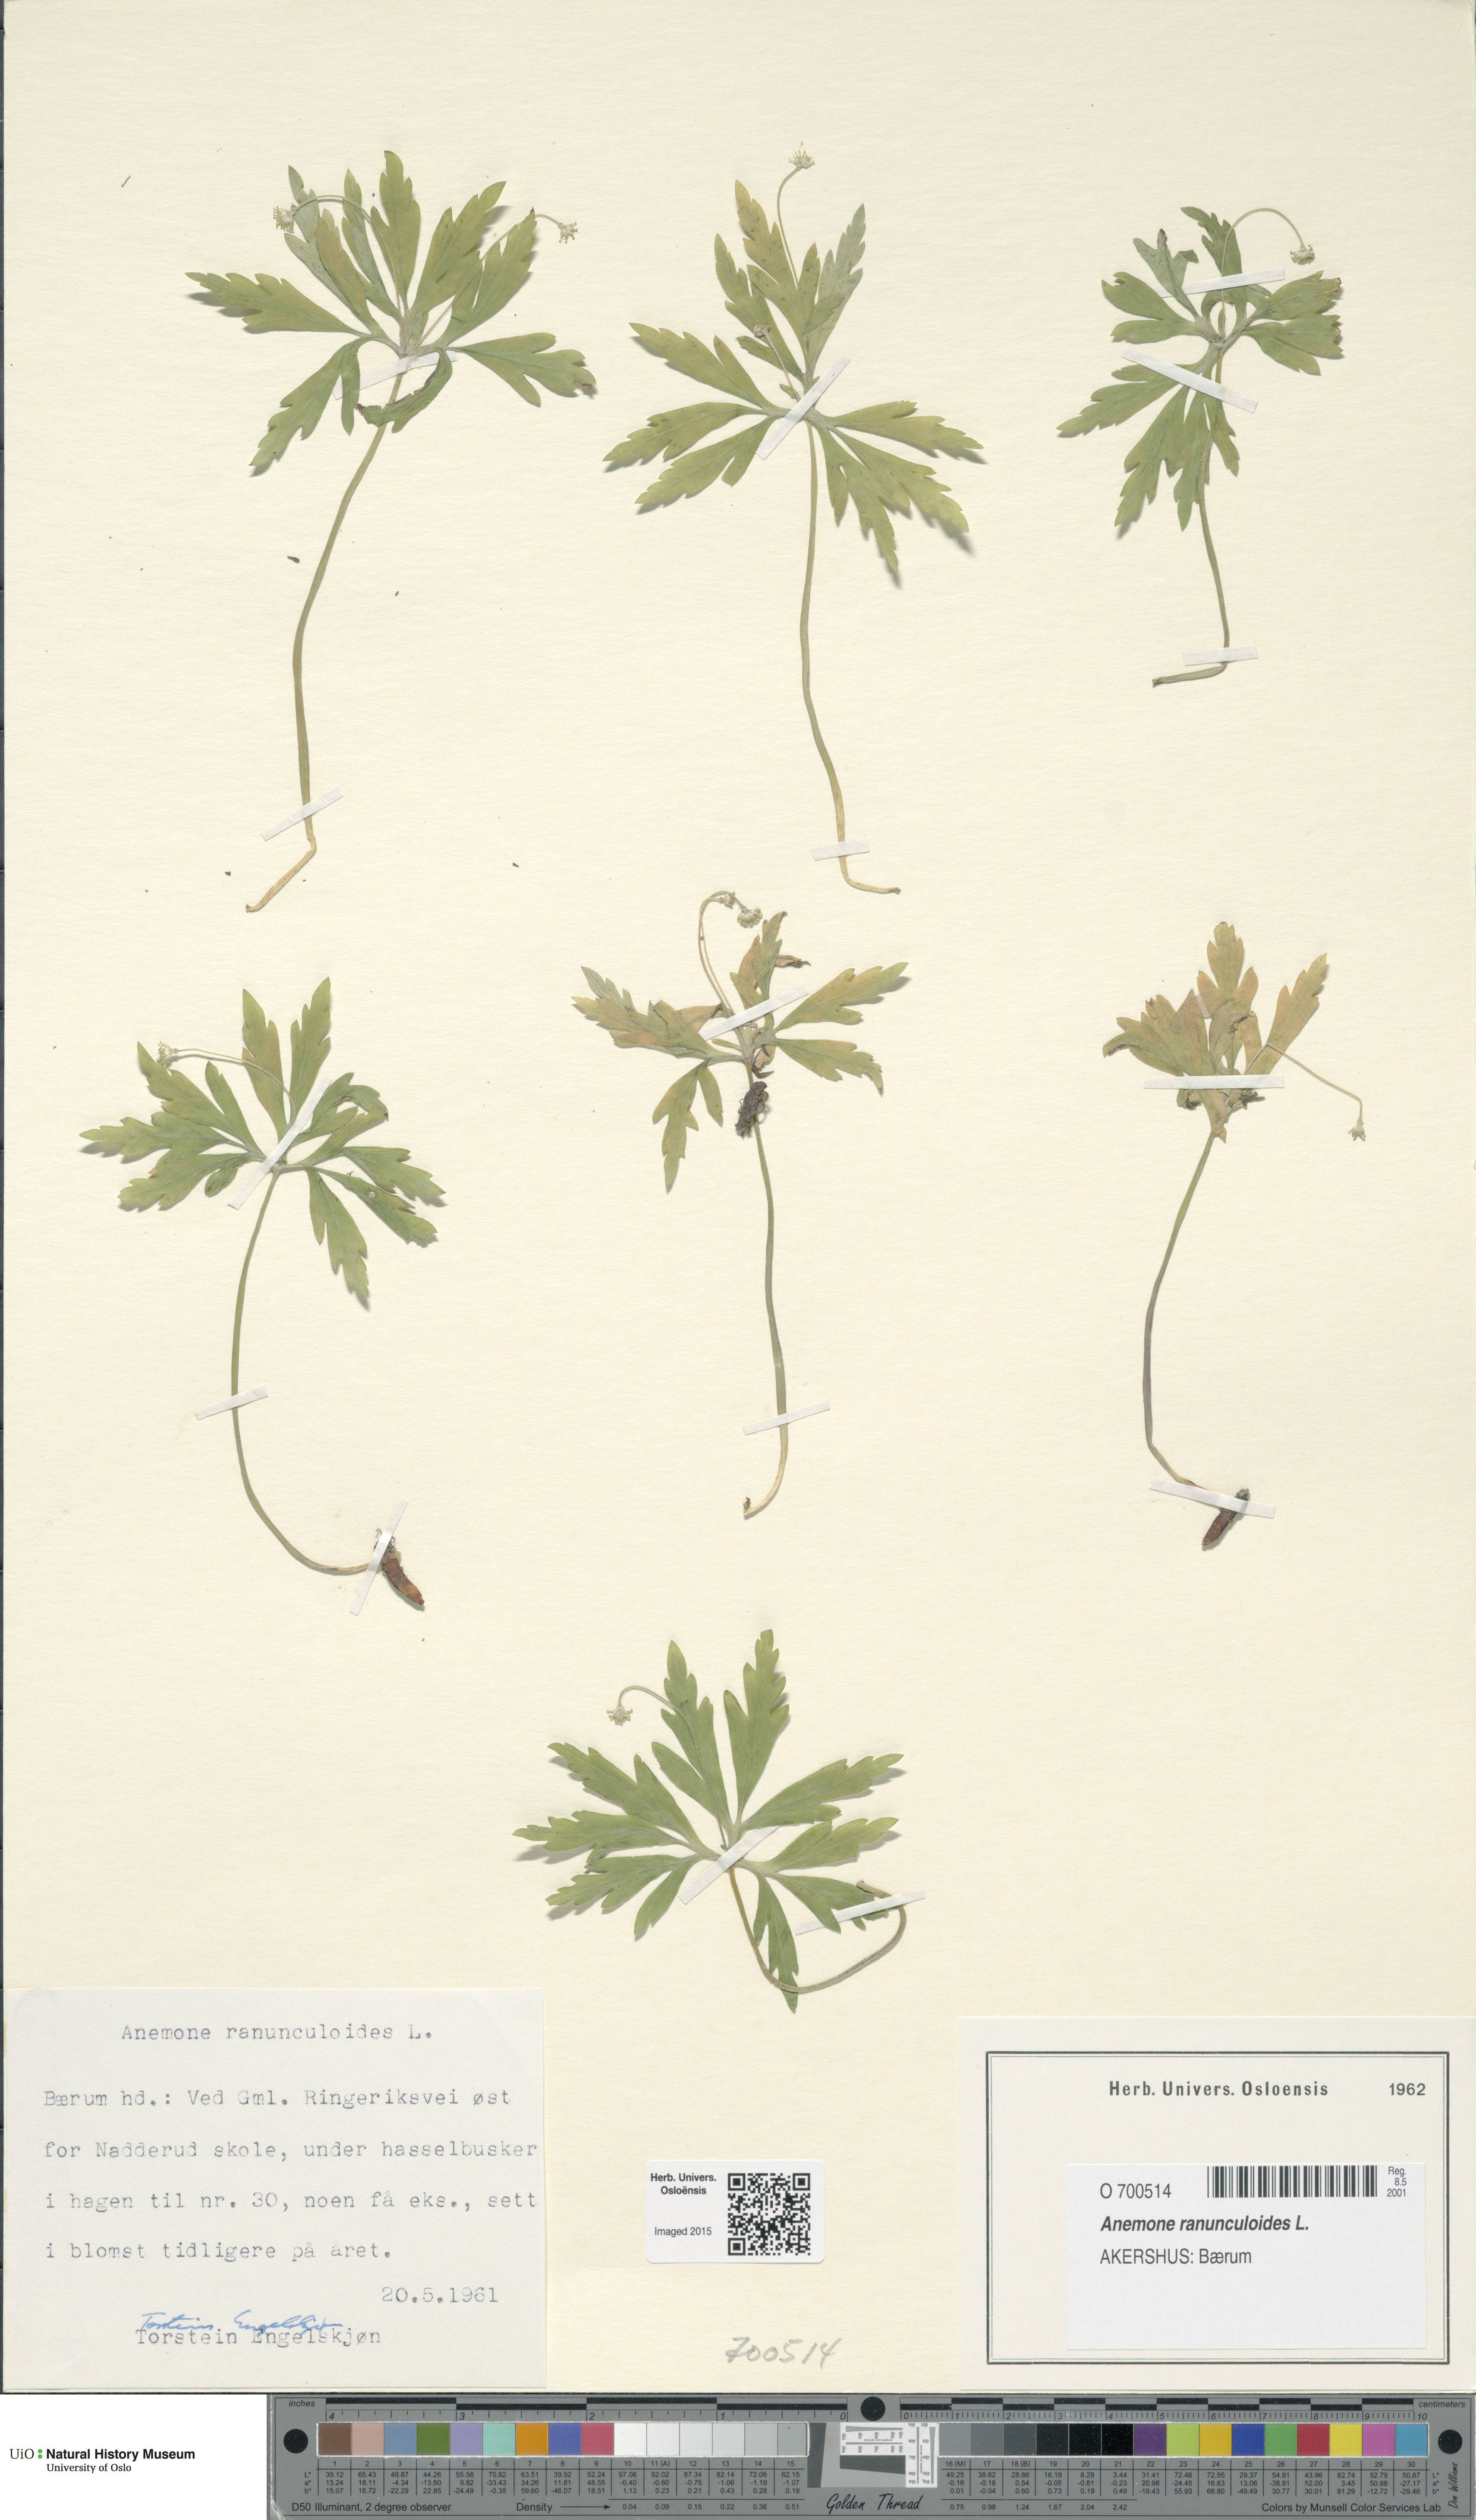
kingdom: Plantae
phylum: Tracheophyta
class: Magnoliopsida
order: Ranunculales
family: Ranunculaceae
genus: Anemone
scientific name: Anemone ranunculoides
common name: Yellow anemone
